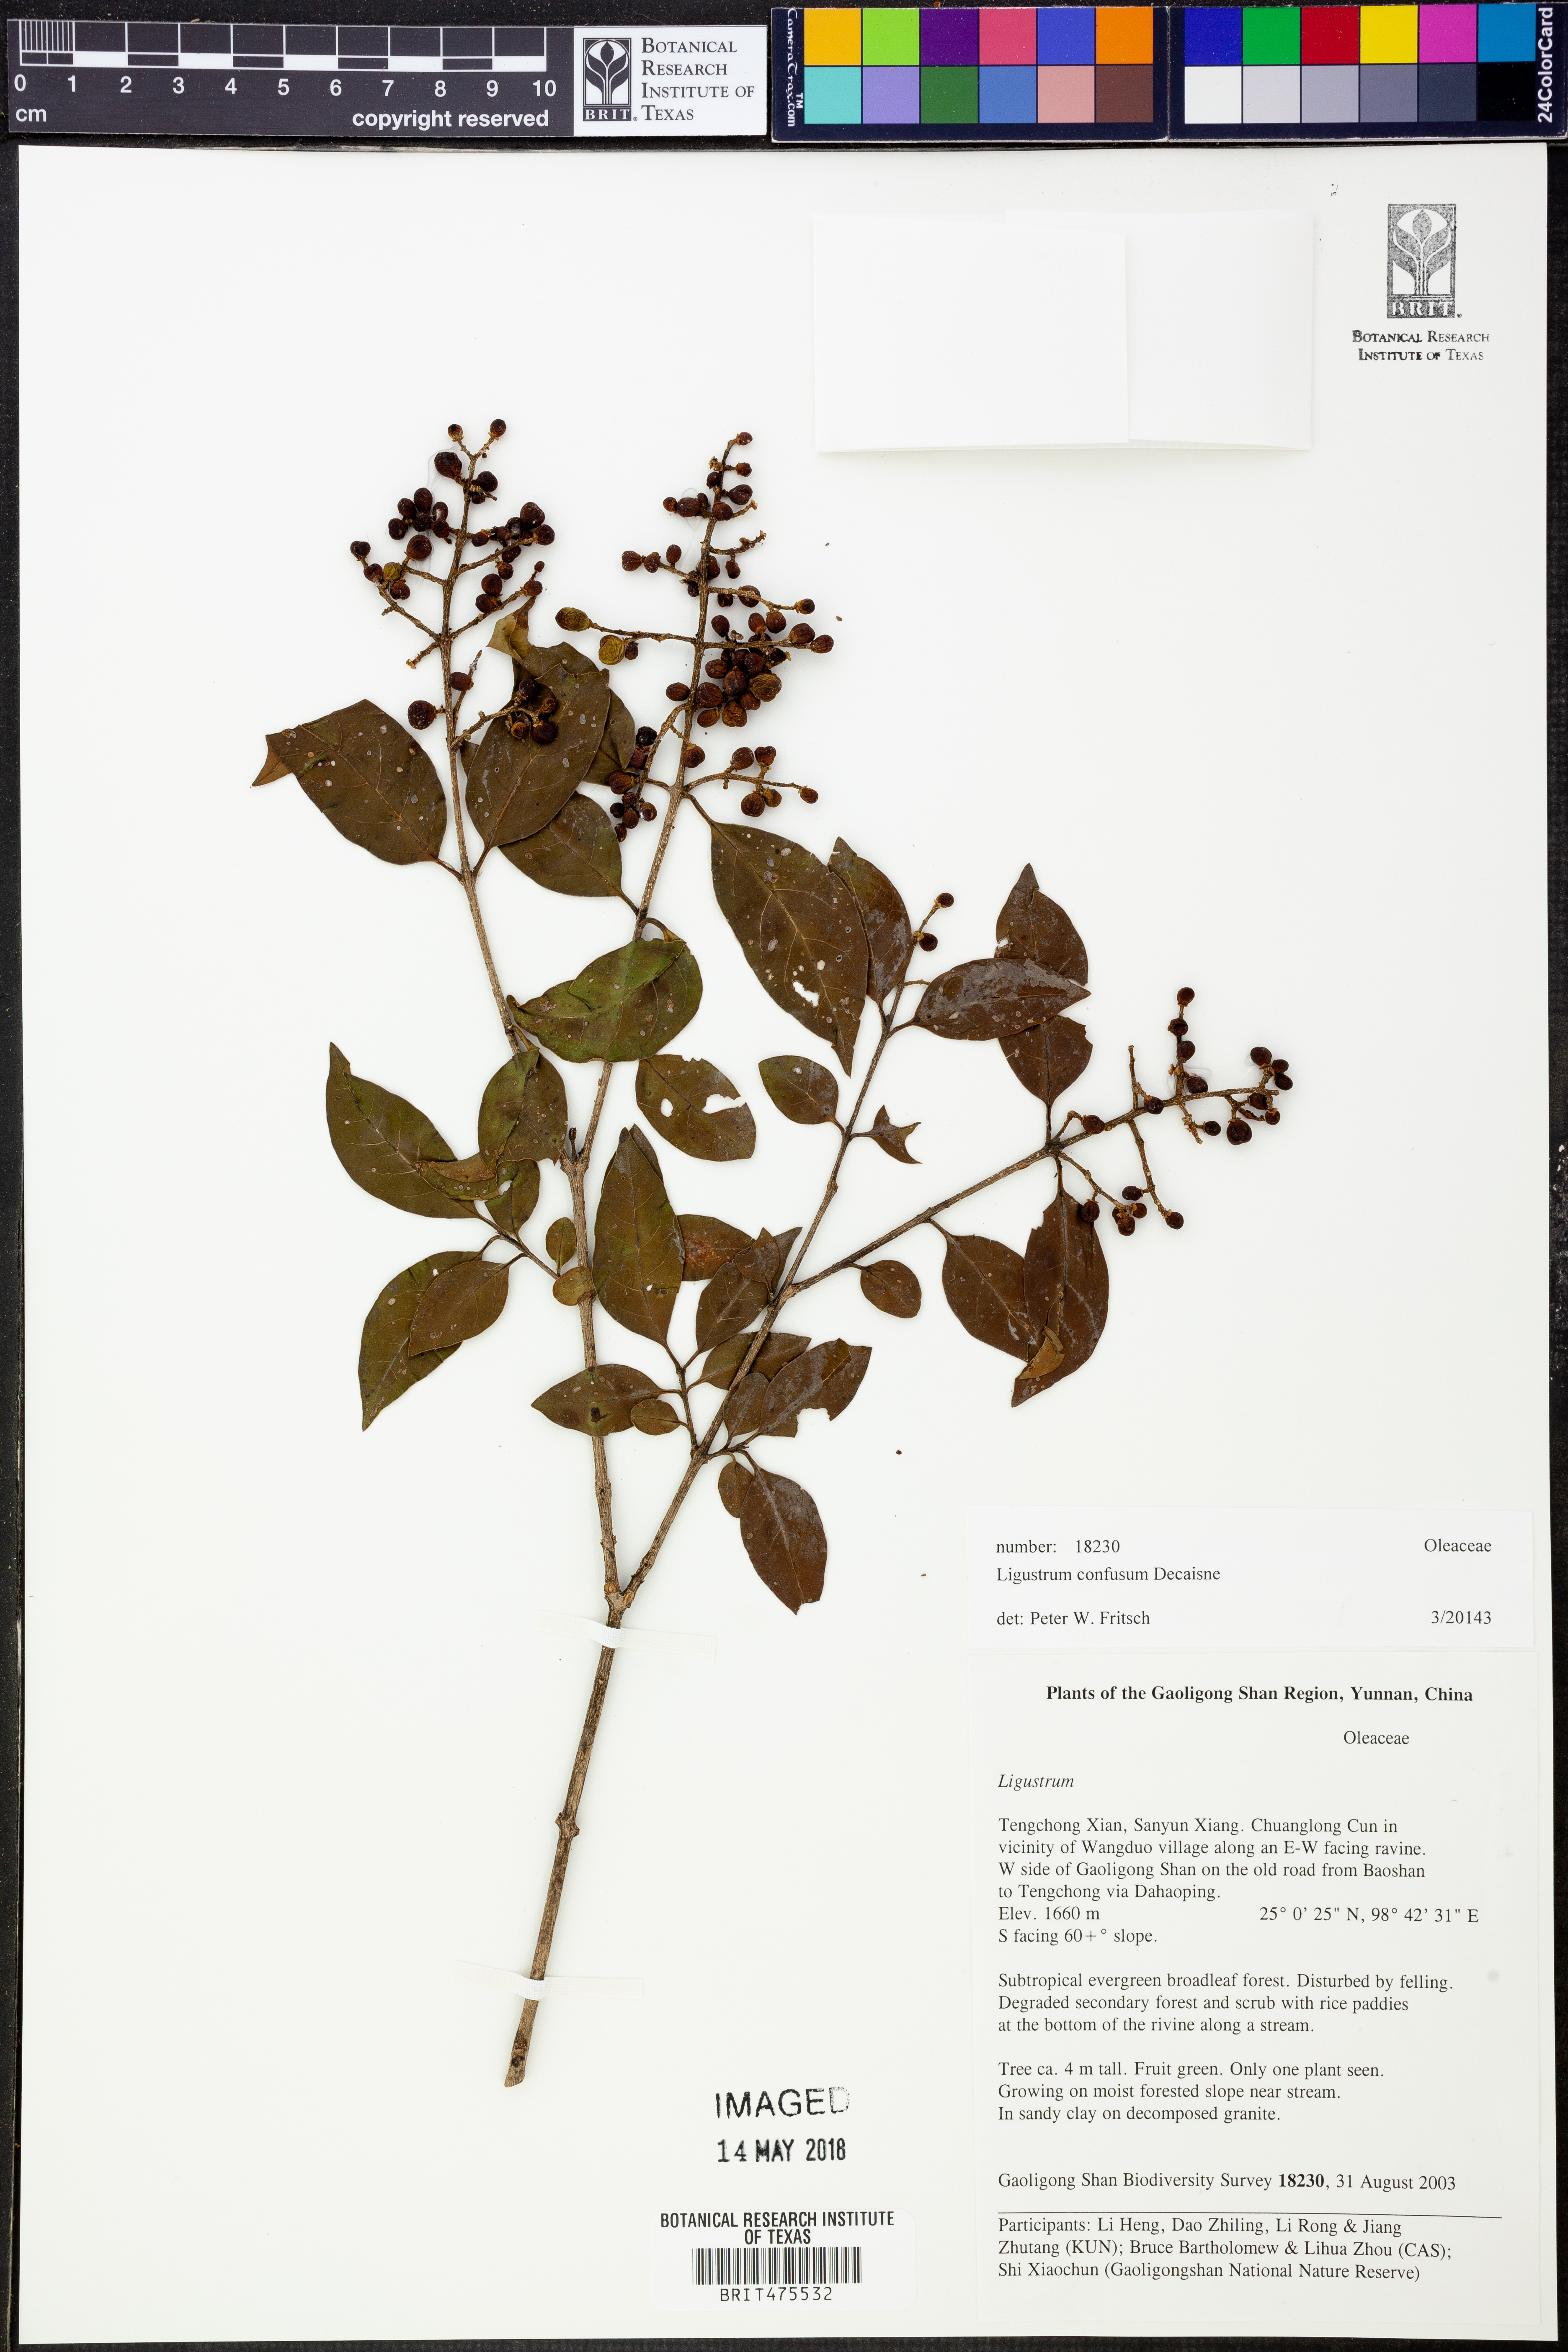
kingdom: Plantae
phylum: Tracheophyta
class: Magnoliopsida
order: Lamiales
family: Oleaceae
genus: Ligustrum
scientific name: Ligustrum confusum
